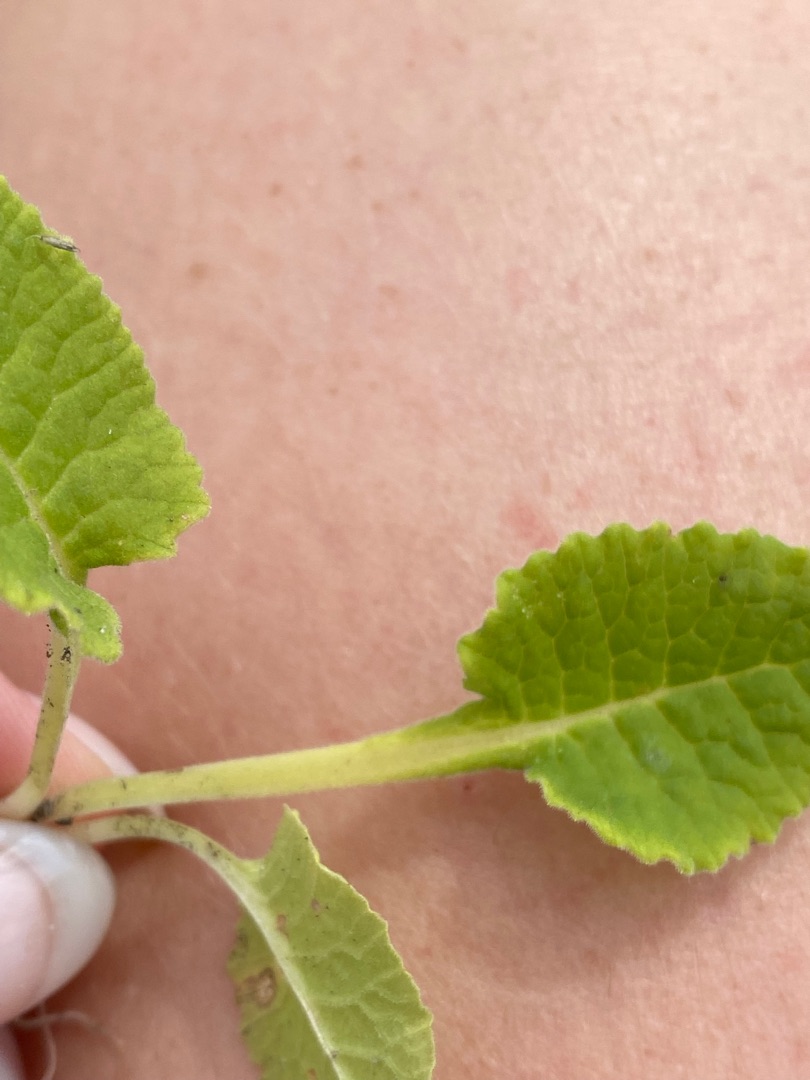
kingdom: Plantae
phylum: Tracheophyta
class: Magnoliopsida
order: Ericales
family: Primulaceae
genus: Primula
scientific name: Primula veris
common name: Hulkravet kodriver
